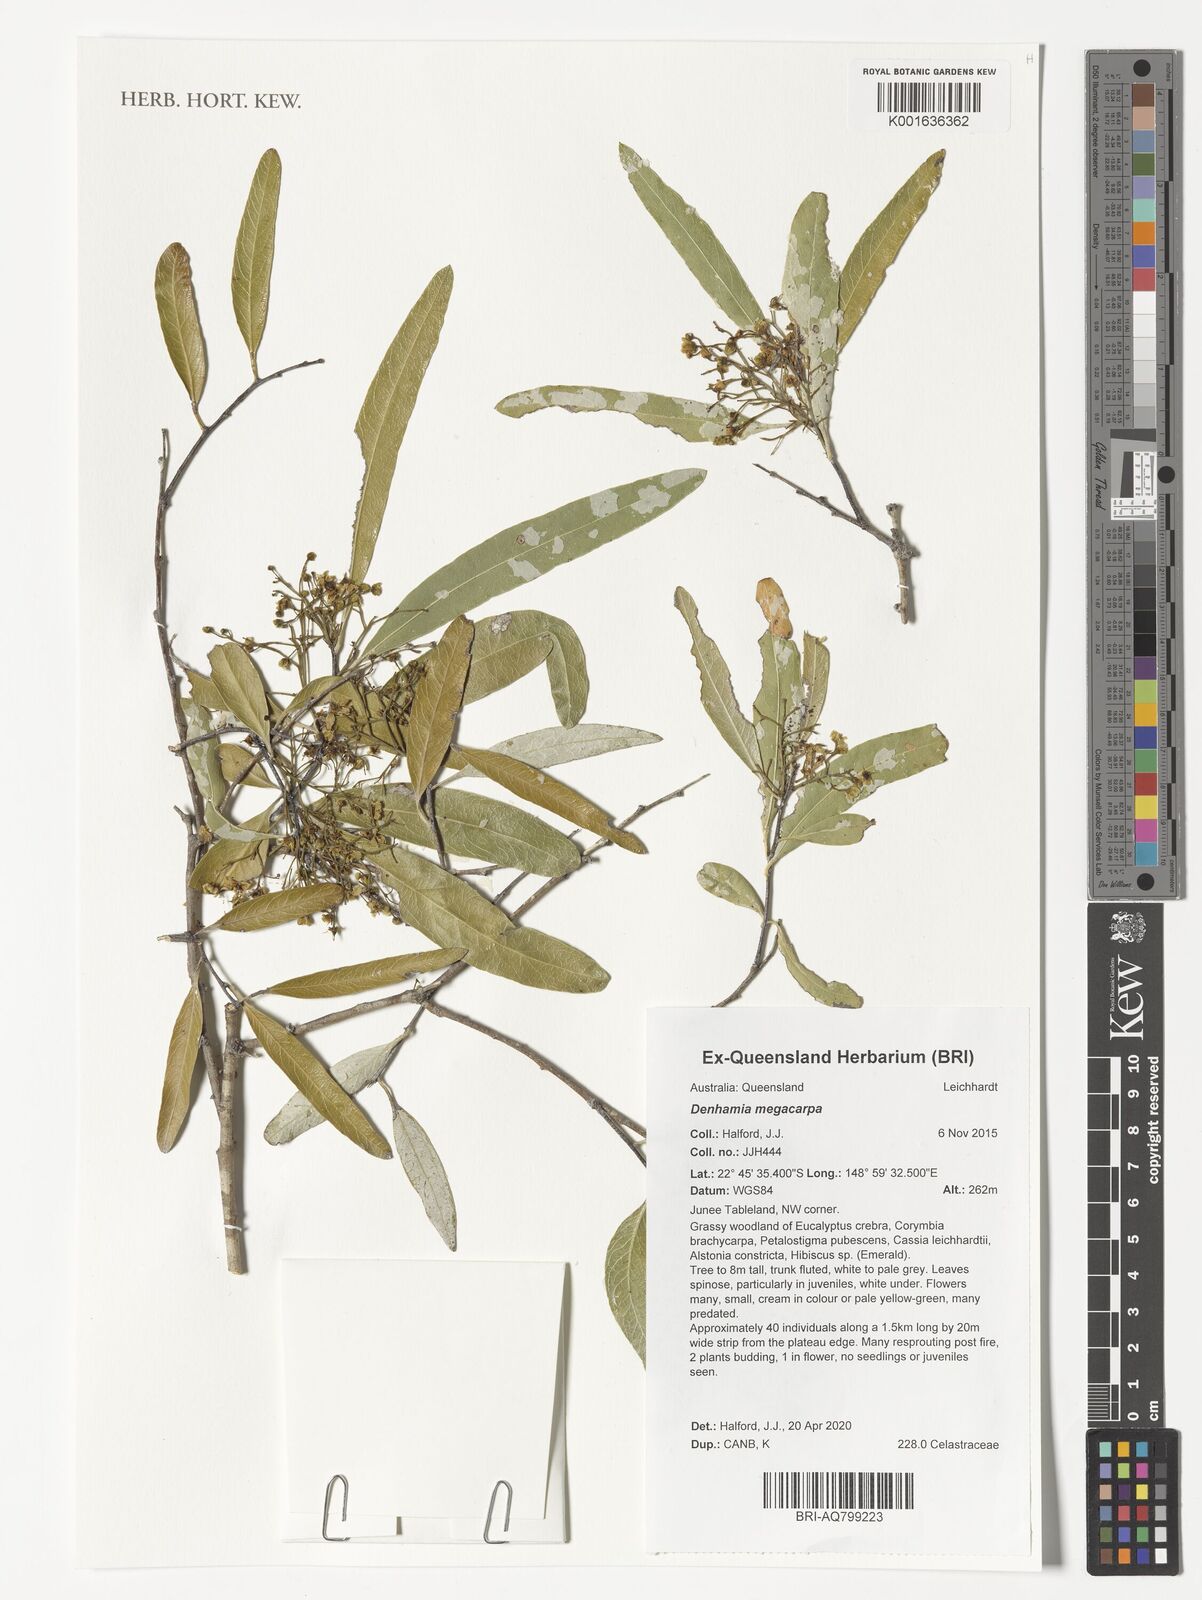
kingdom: Plantae
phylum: Tracheophyta
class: Magnoliopsida
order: Celastrales
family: Celastraceae
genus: Denhamia
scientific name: Denhamia
